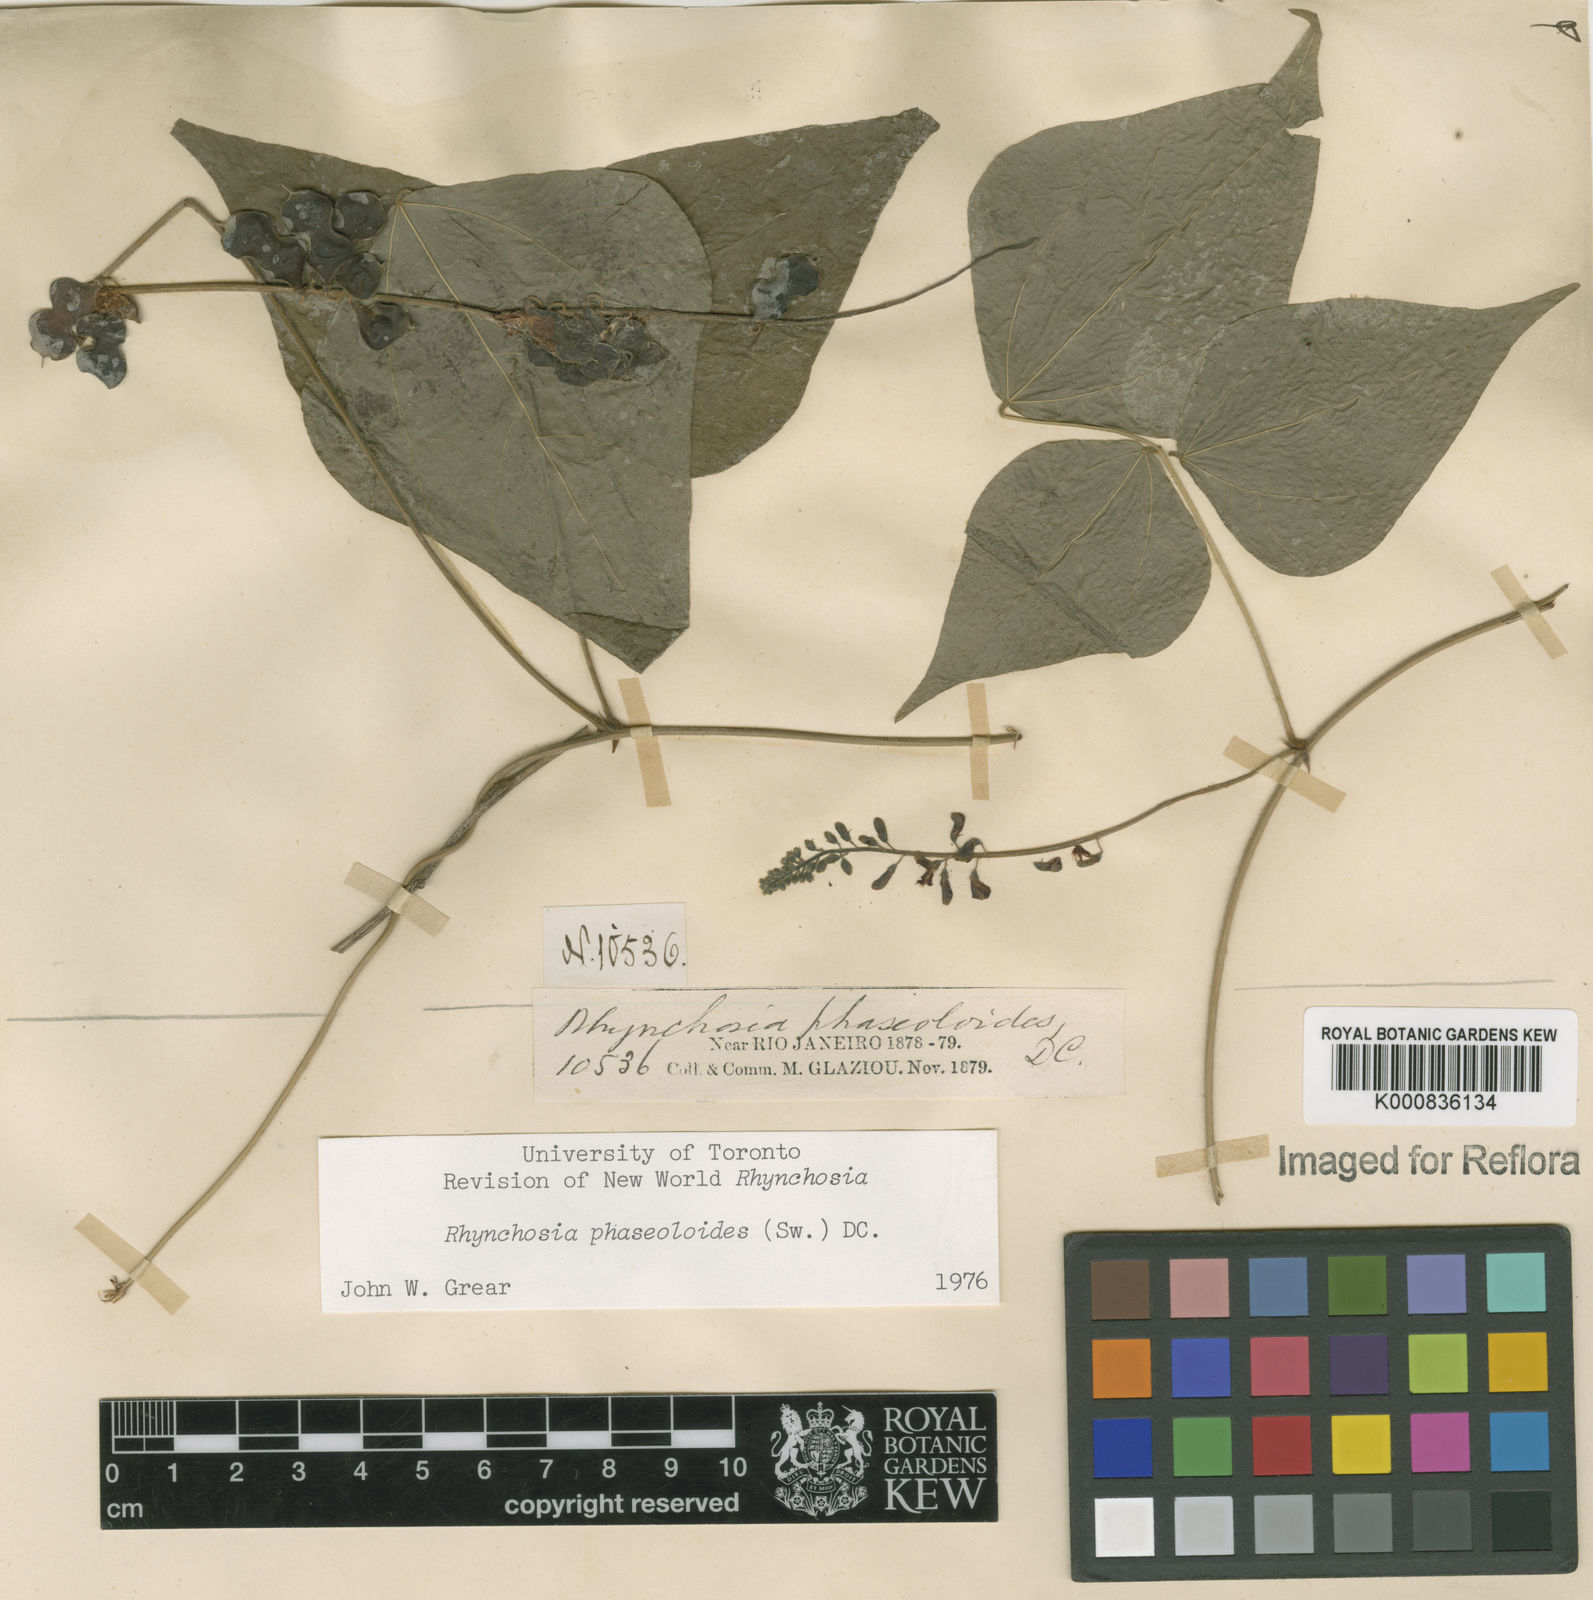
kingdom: Plantae
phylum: Tracheophyta
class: Magnoliopsida
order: Fabales
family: Fabaceae
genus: Rhynchosia
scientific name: Rhynchosia phaseoloides
